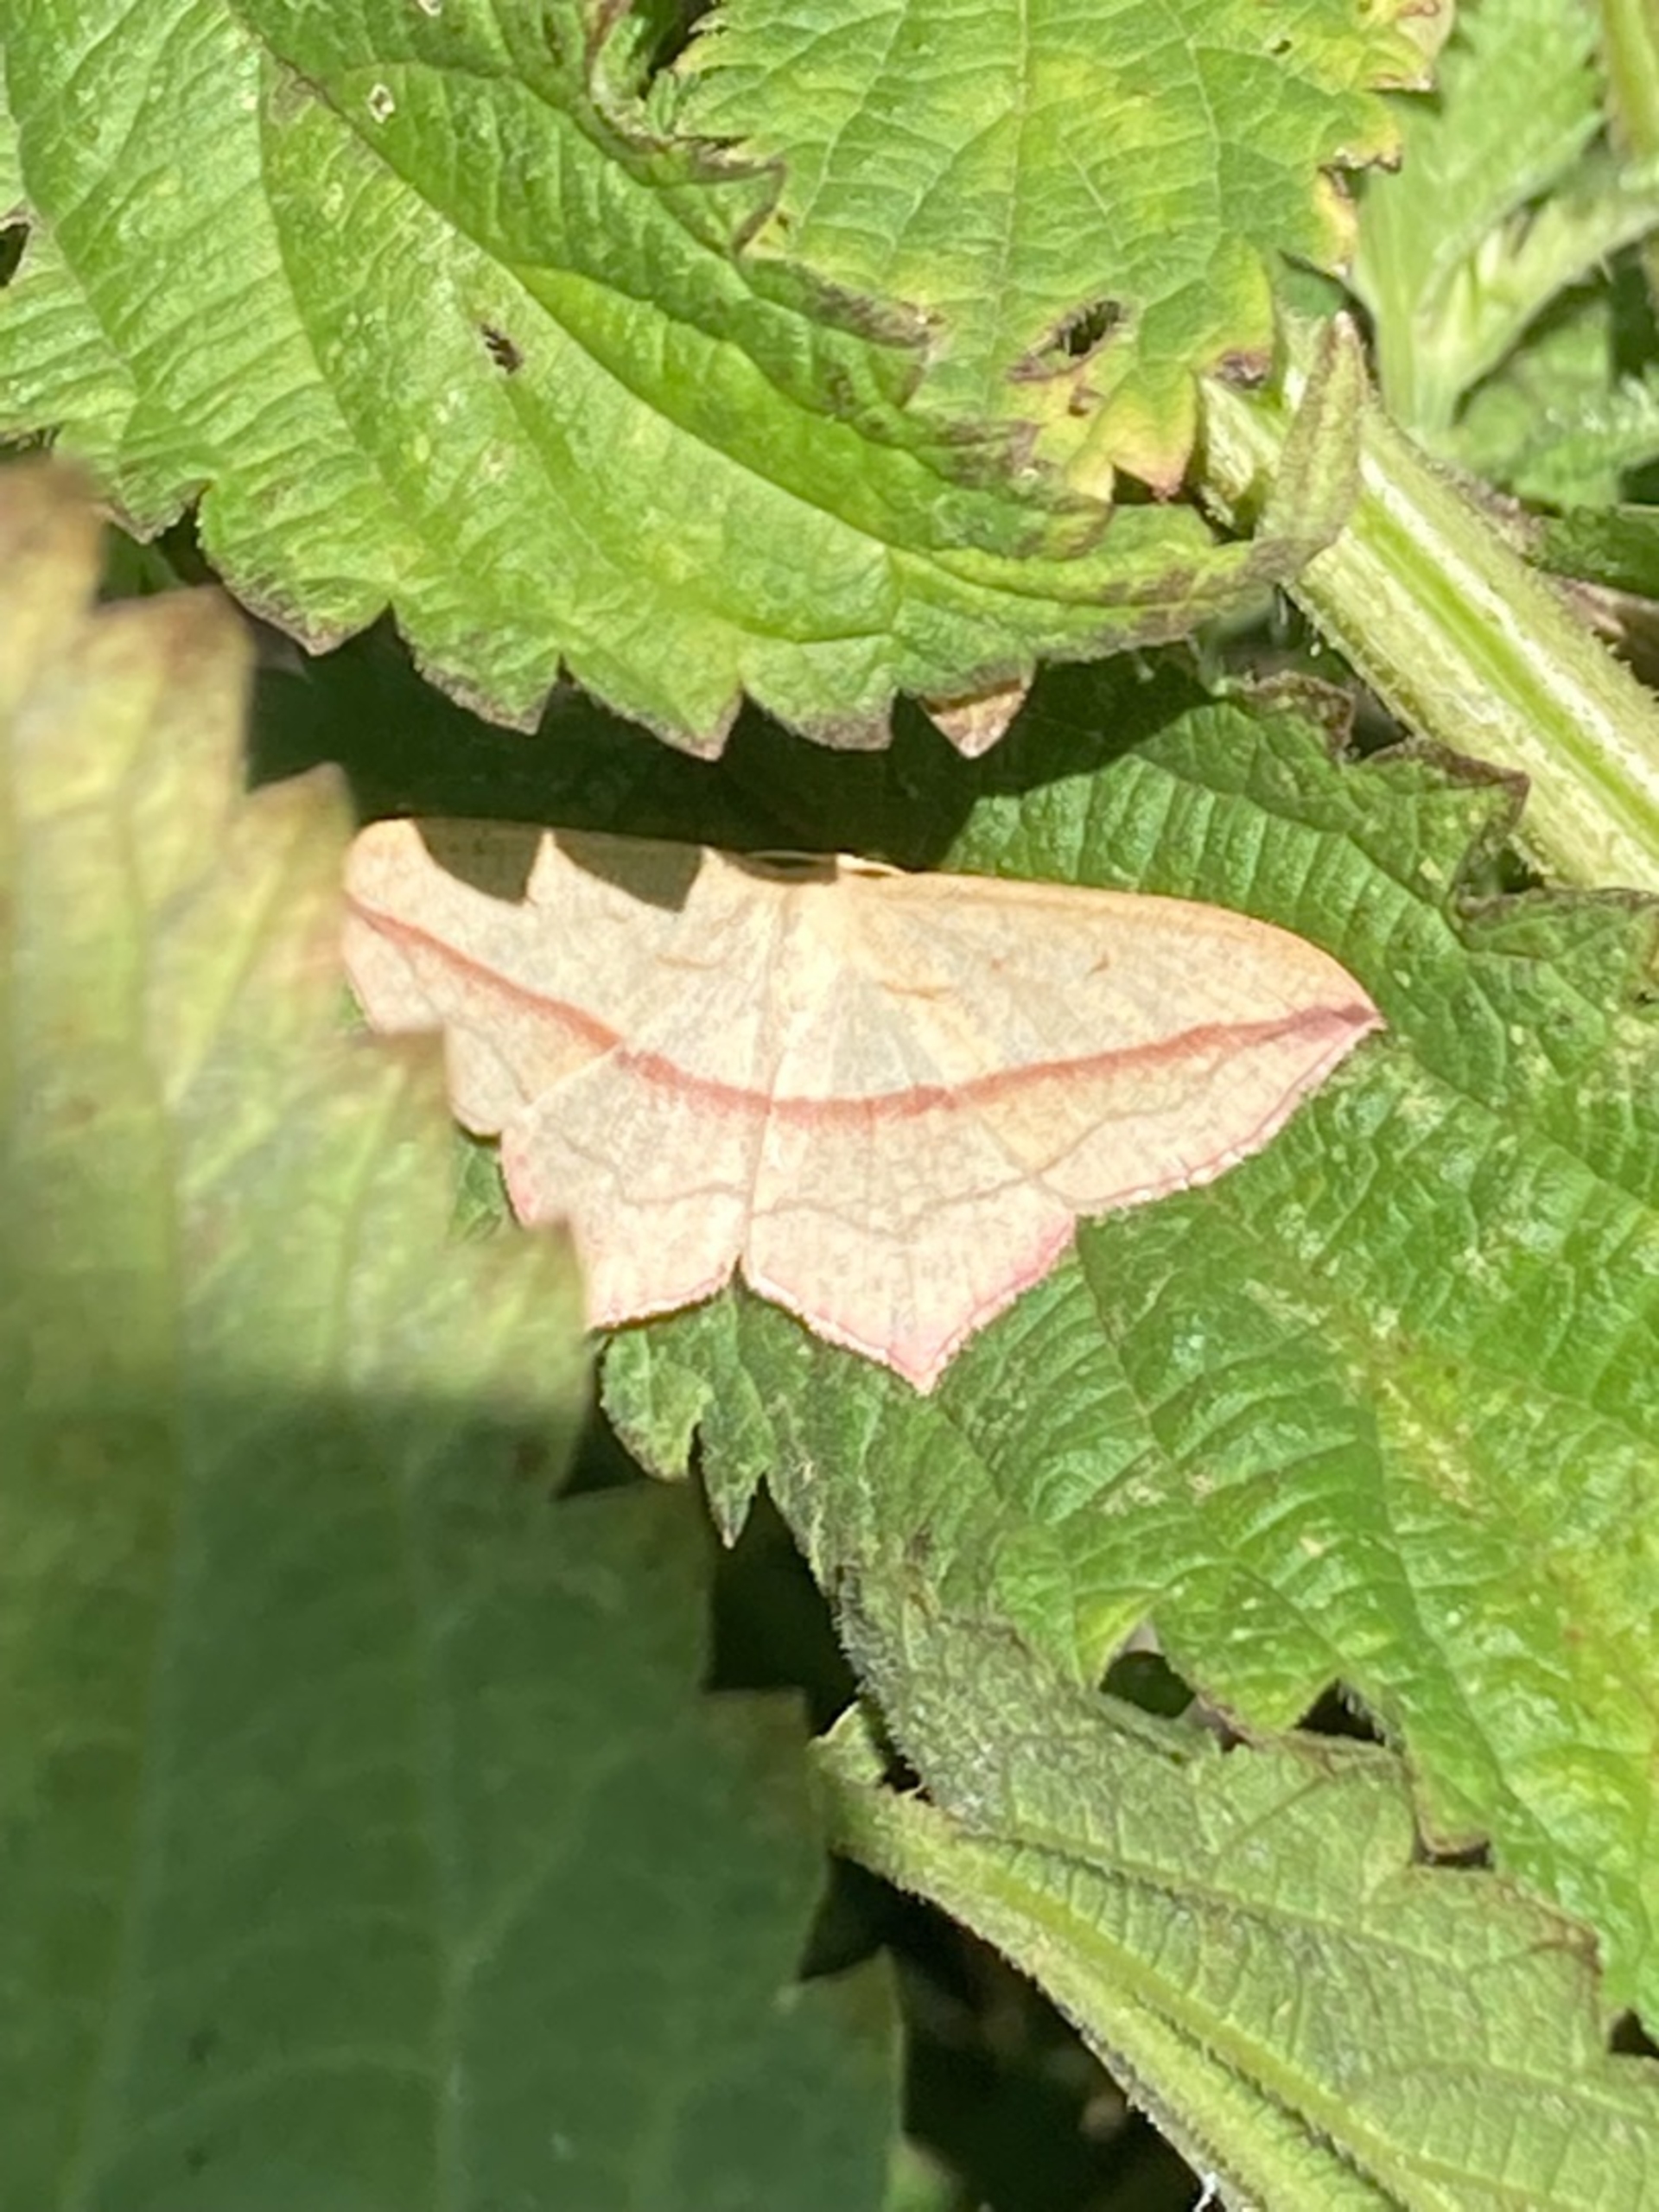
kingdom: Animalia
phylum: Arthropoda
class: Insecta
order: Lepidoptera
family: Geometridae
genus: Timandra
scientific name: Timandra comae
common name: Gul syremåler
